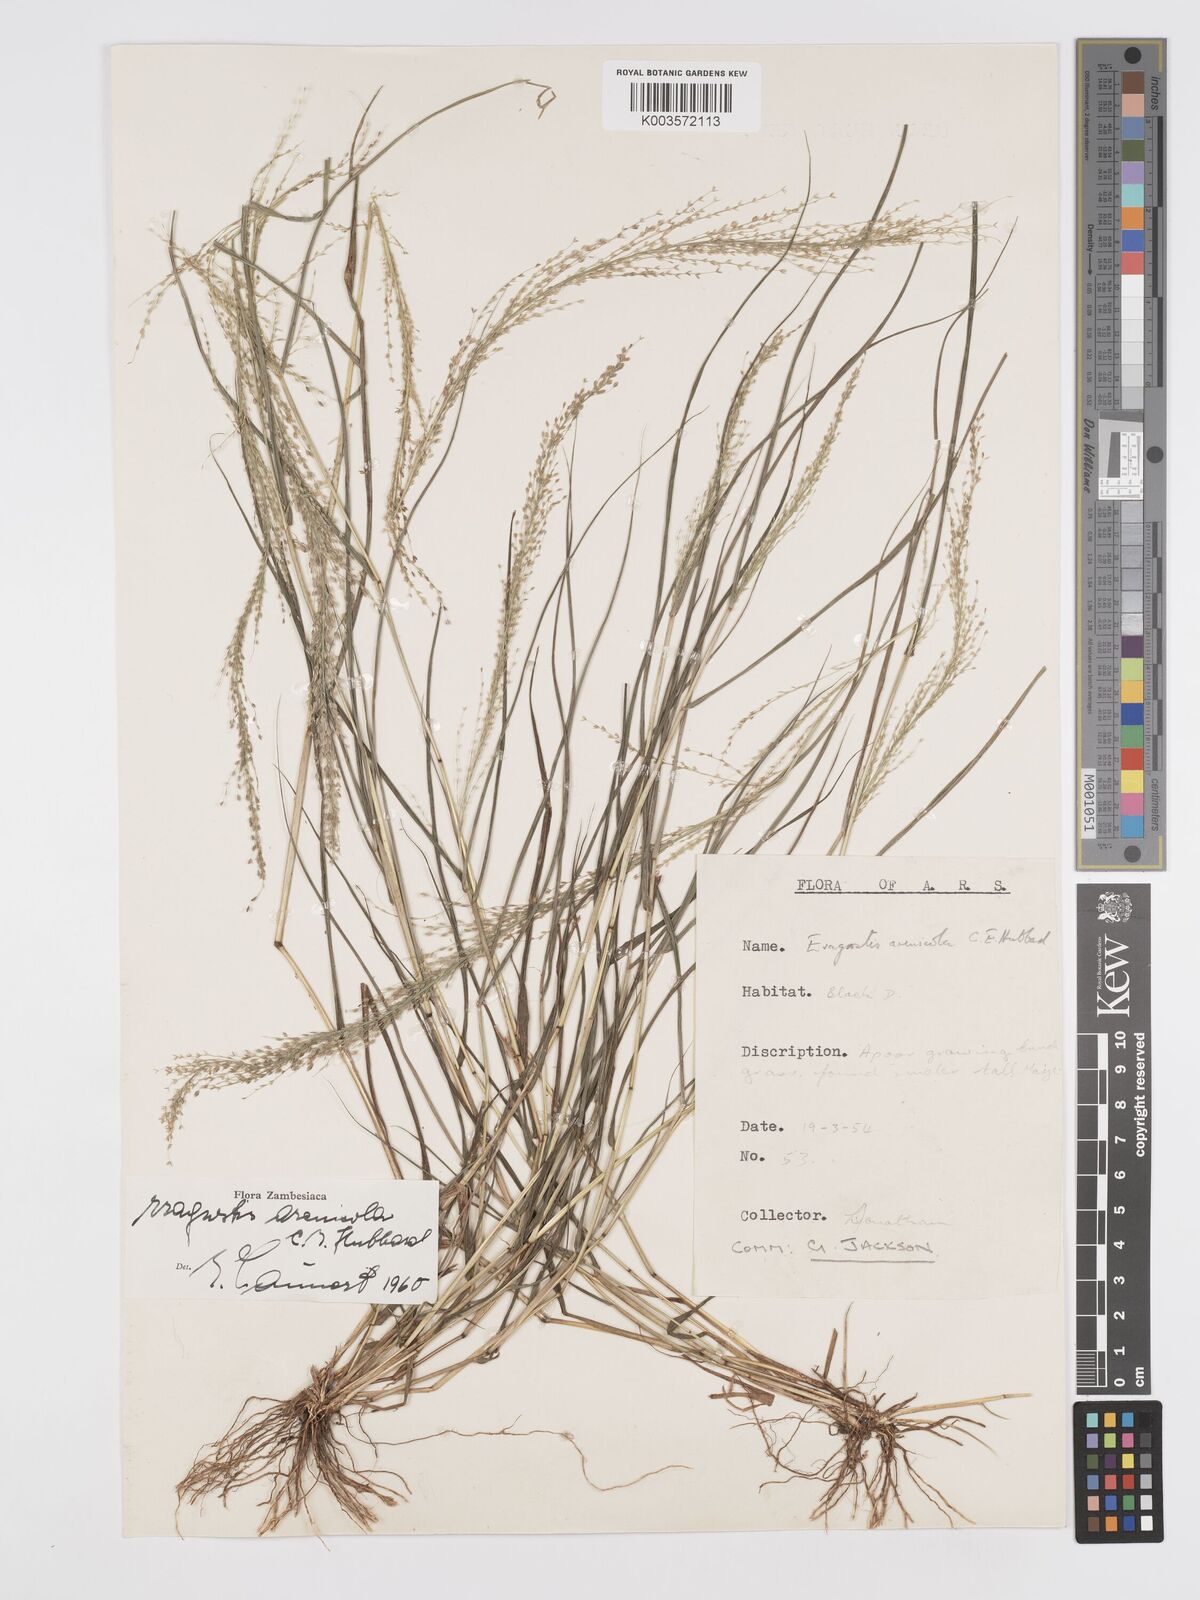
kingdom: Plantae
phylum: Tracheophyta
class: Liliopsida
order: Poales
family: Poaceae
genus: Eragrostis
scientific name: Eragrostis arenicola
